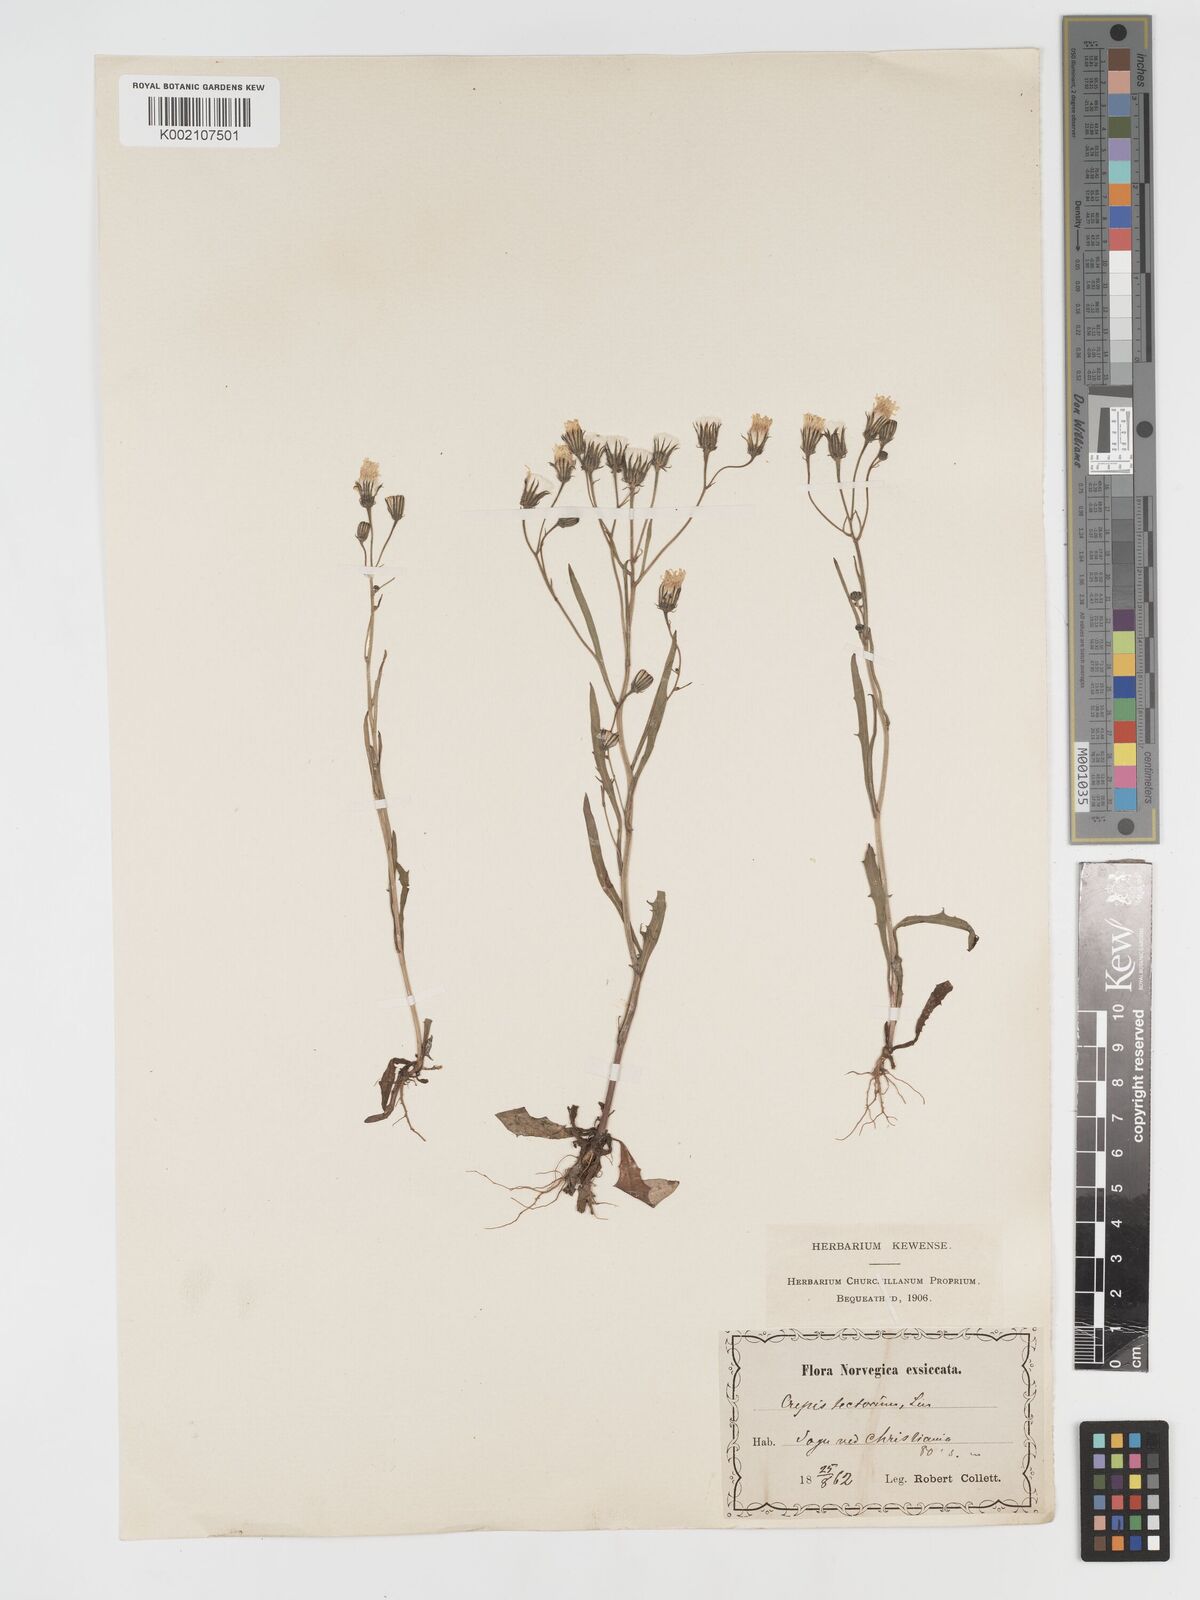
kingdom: Plantae
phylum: Tracheophyta
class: Magnoliopsida
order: Asterales
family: Asteraceae
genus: Crepis
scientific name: Crepis tectorum
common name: Narrow-leaved hawk's-beard
